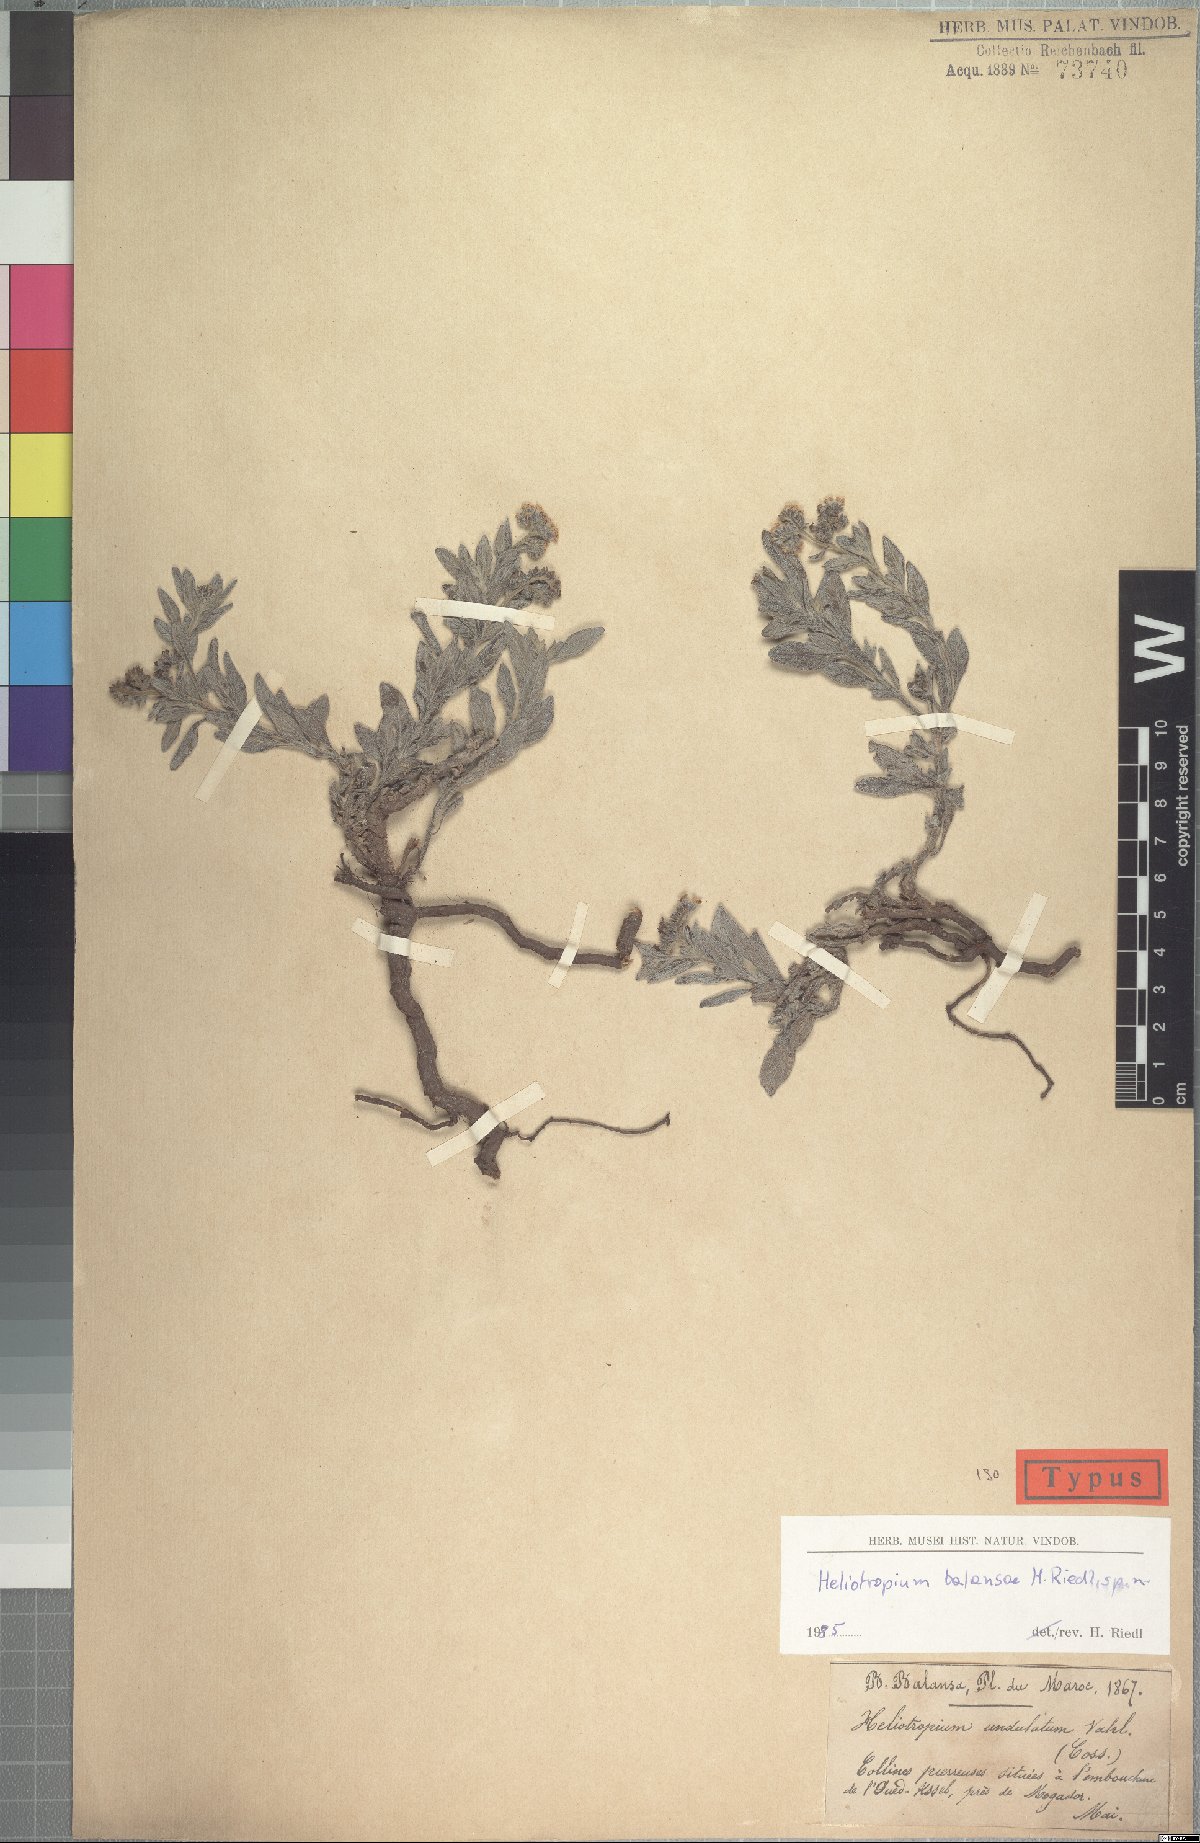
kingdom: Plantae
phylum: Tracheophyta
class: Magnoliopsida
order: Boraginales
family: Heliotropiaceae
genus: Heliotropium
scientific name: Heliotropium ramosissimum
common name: Wavy heliotrope
